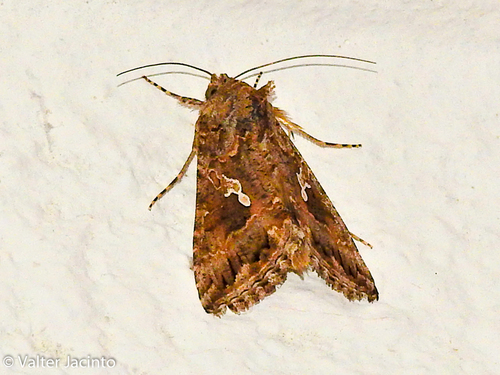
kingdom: Animalia
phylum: Arthropoda
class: Insecta
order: Lepidoptera
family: Noctuidae
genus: Trichoplusia
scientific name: Trichoplusia ni
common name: Ni moth
